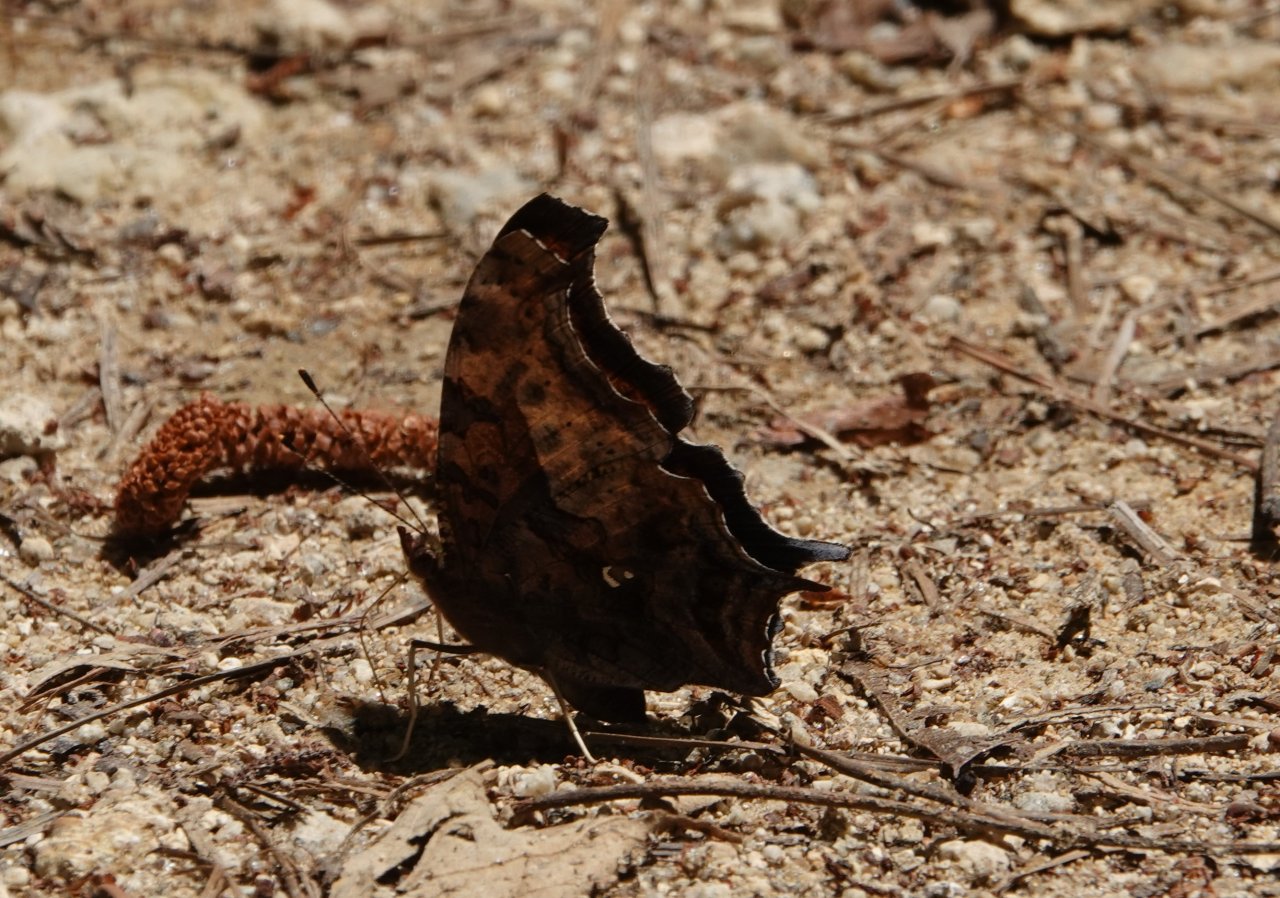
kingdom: Animalia
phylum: Arthropoda
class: Insecta
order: Lepidoptera
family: Nymphalidae
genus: Polygonia
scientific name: Polygonia interrogationis
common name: Question Mark
